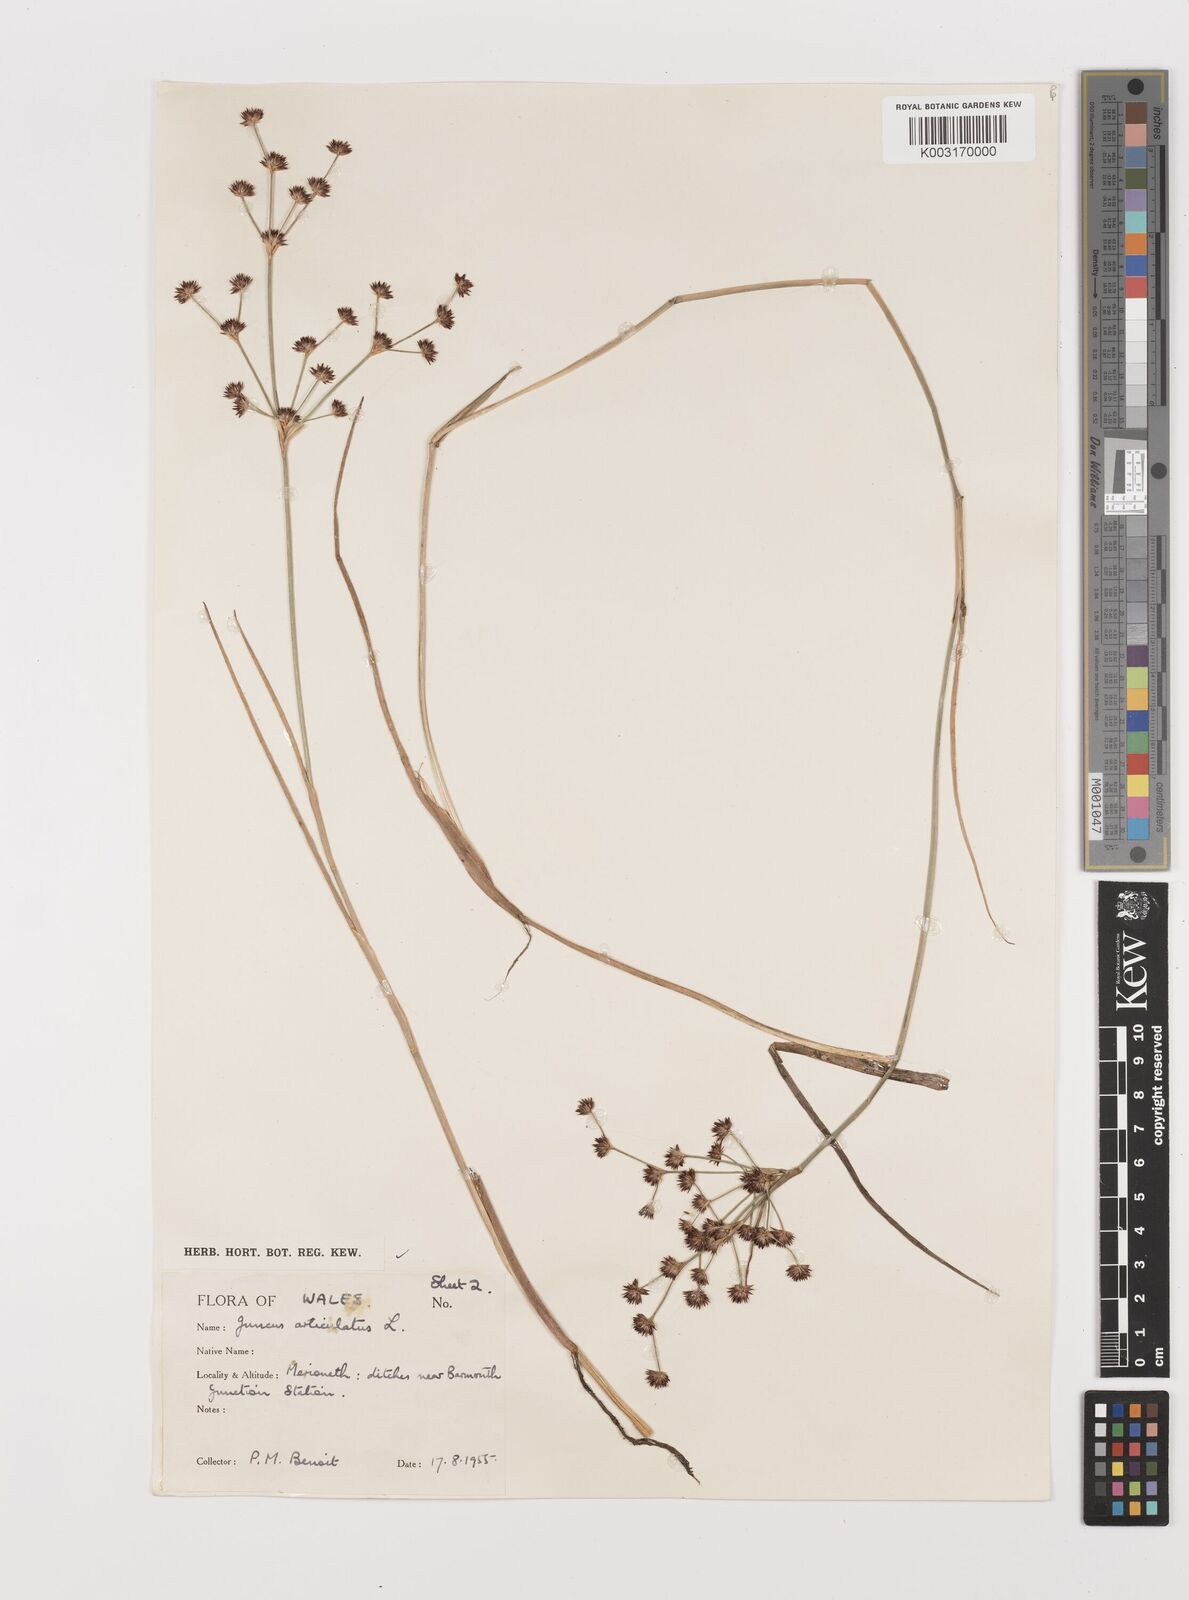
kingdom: Plantae
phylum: Tracheophyta
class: Liliopsida
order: Poales
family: Juncaceae
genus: Juncus
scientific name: Juncus articulatus
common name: Jointed rush
